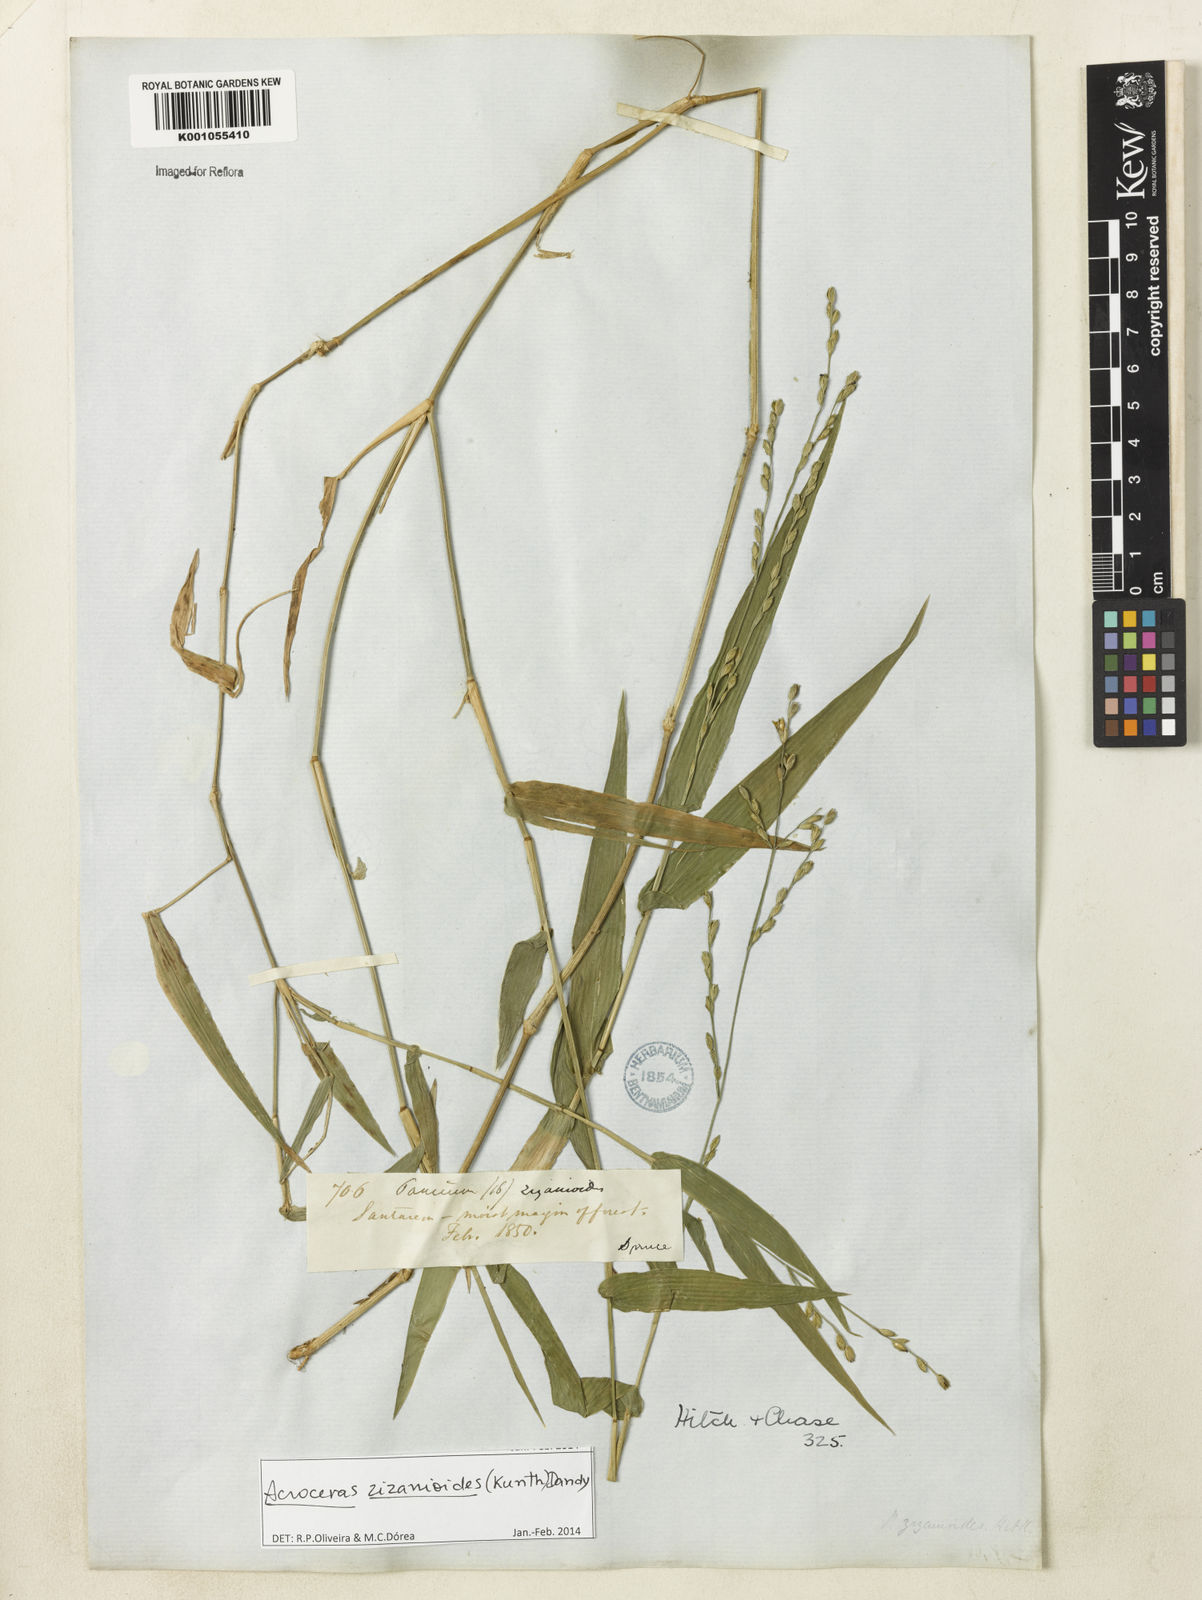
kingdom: Plantae
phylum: Tracheophyta
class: Liliopsida
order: Poales
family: Poaceae
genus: Acroceras
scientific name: Acroceras zizanioides
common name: Oat grass
